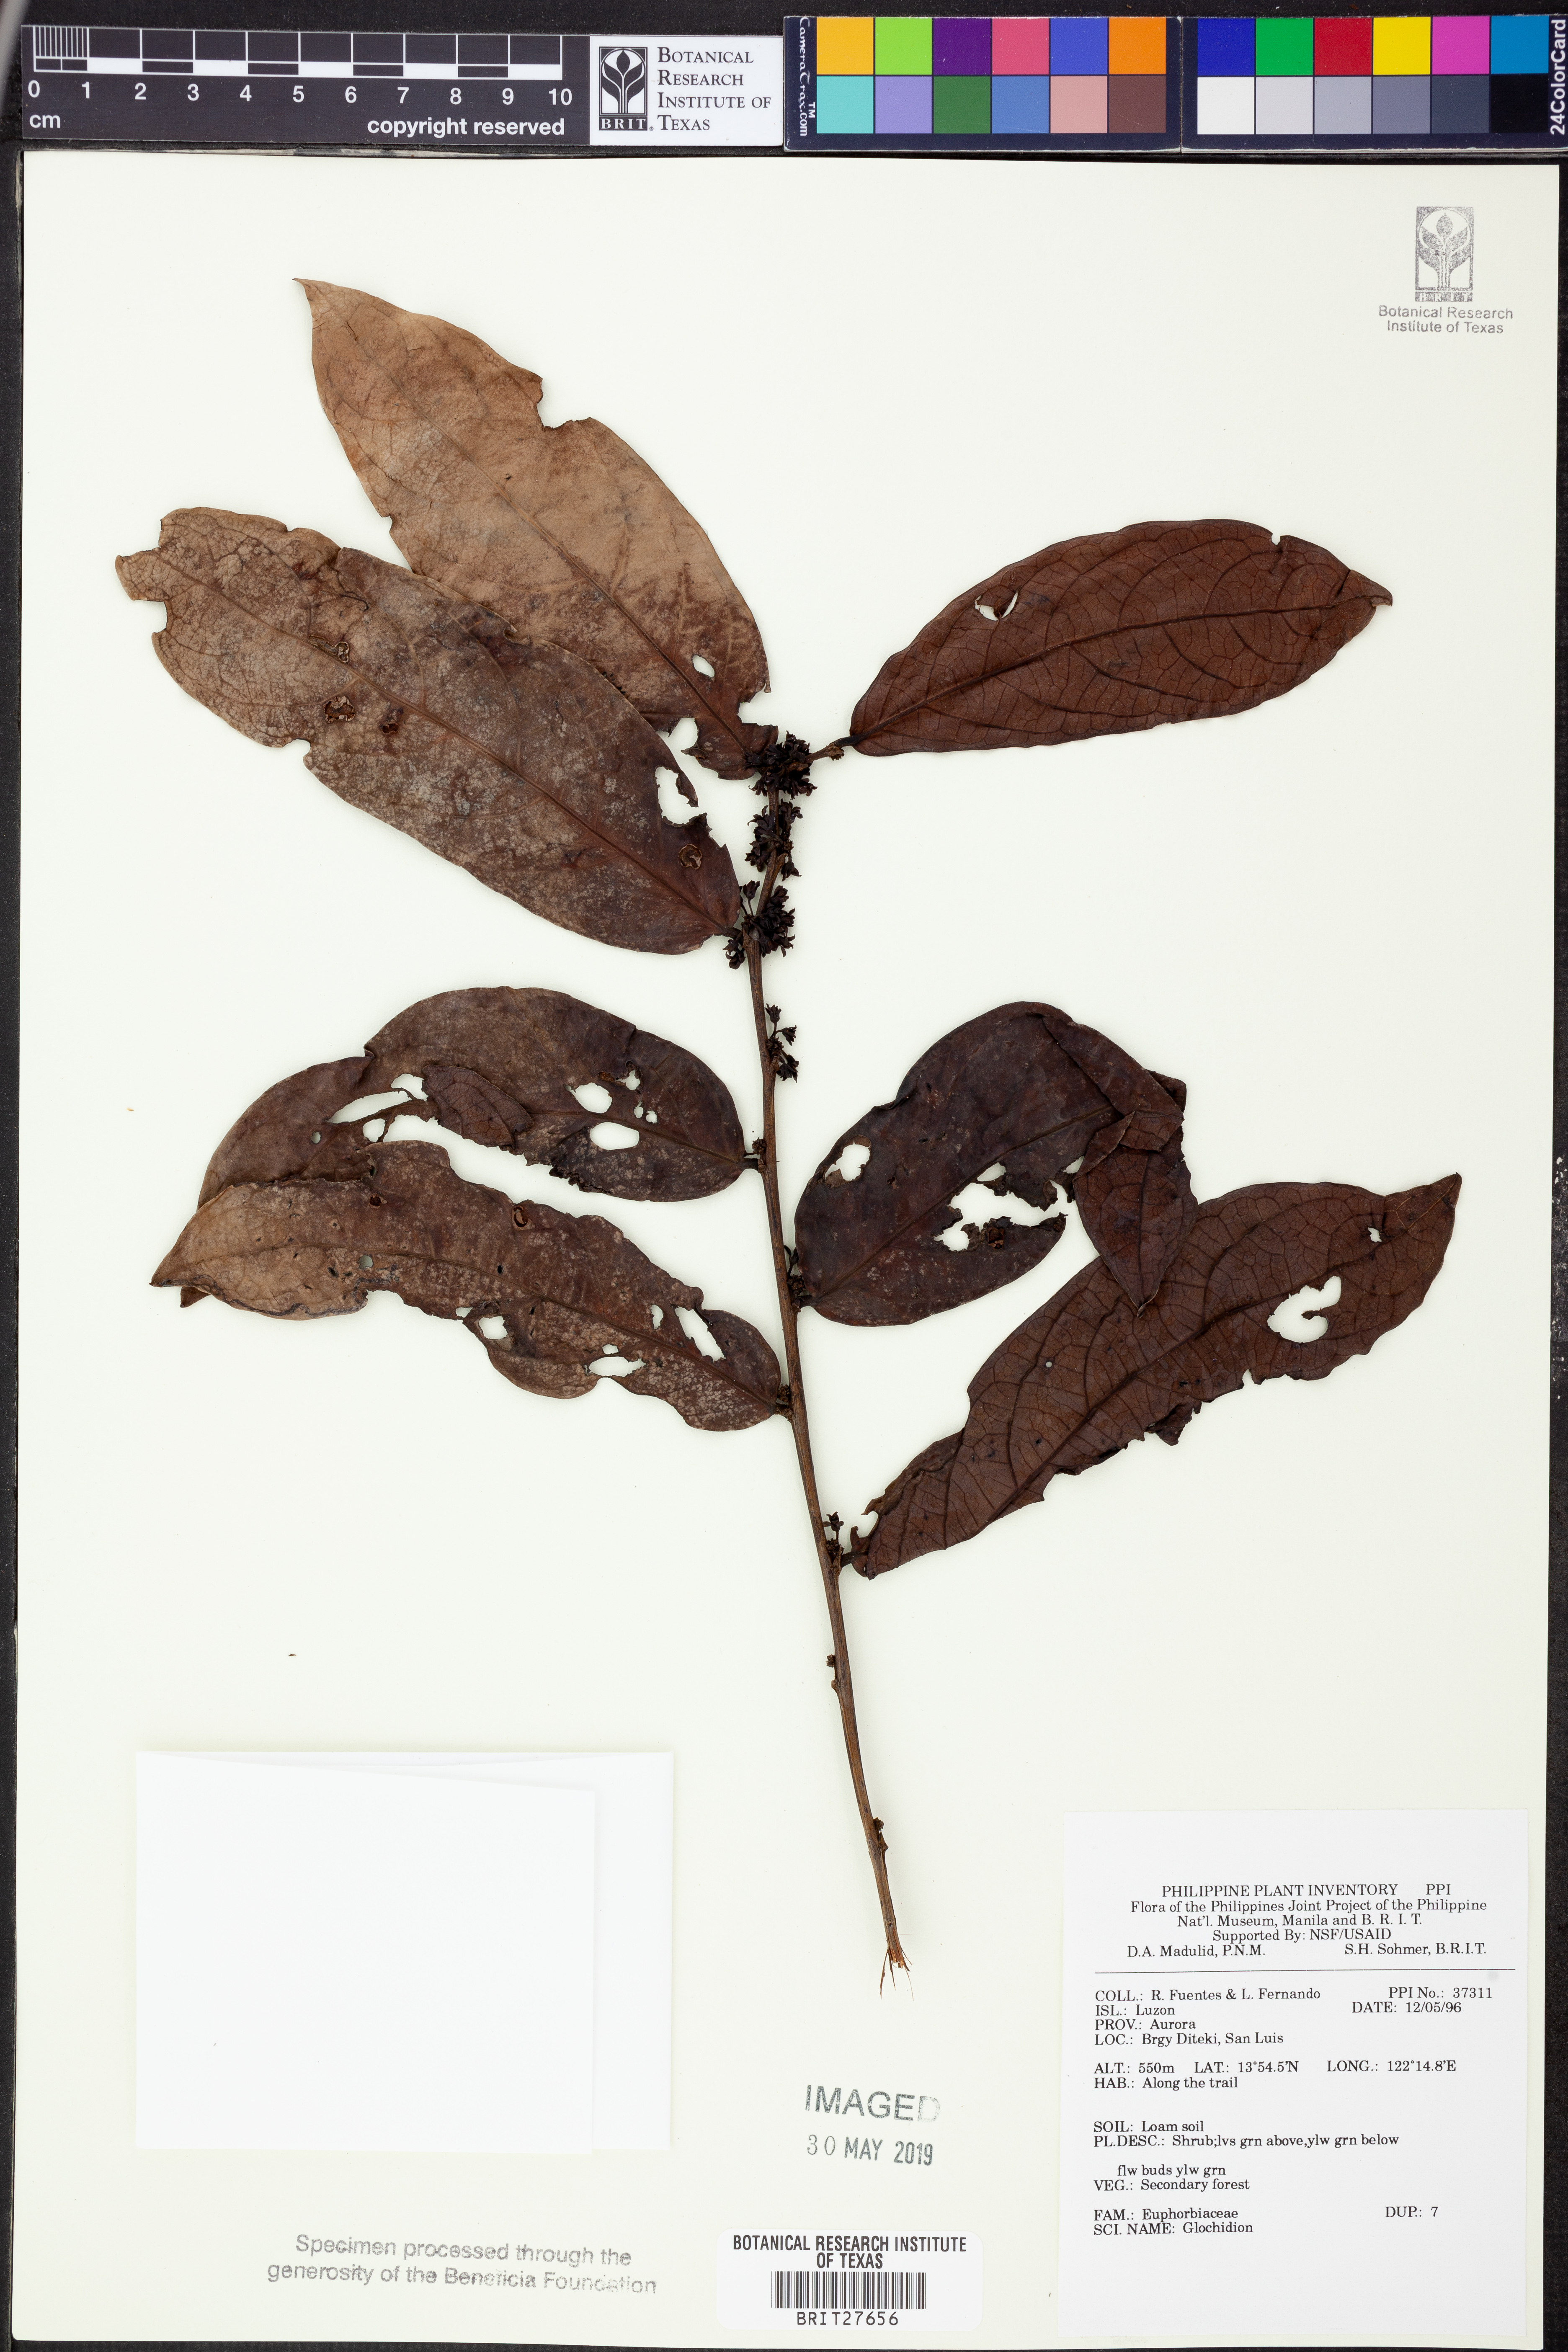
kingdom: Plantae
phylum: Tracheophyta
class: Magnoliopsida
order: Malpighiales
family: Phyllanthaceae
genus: Glochidion
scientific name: Glochidion
